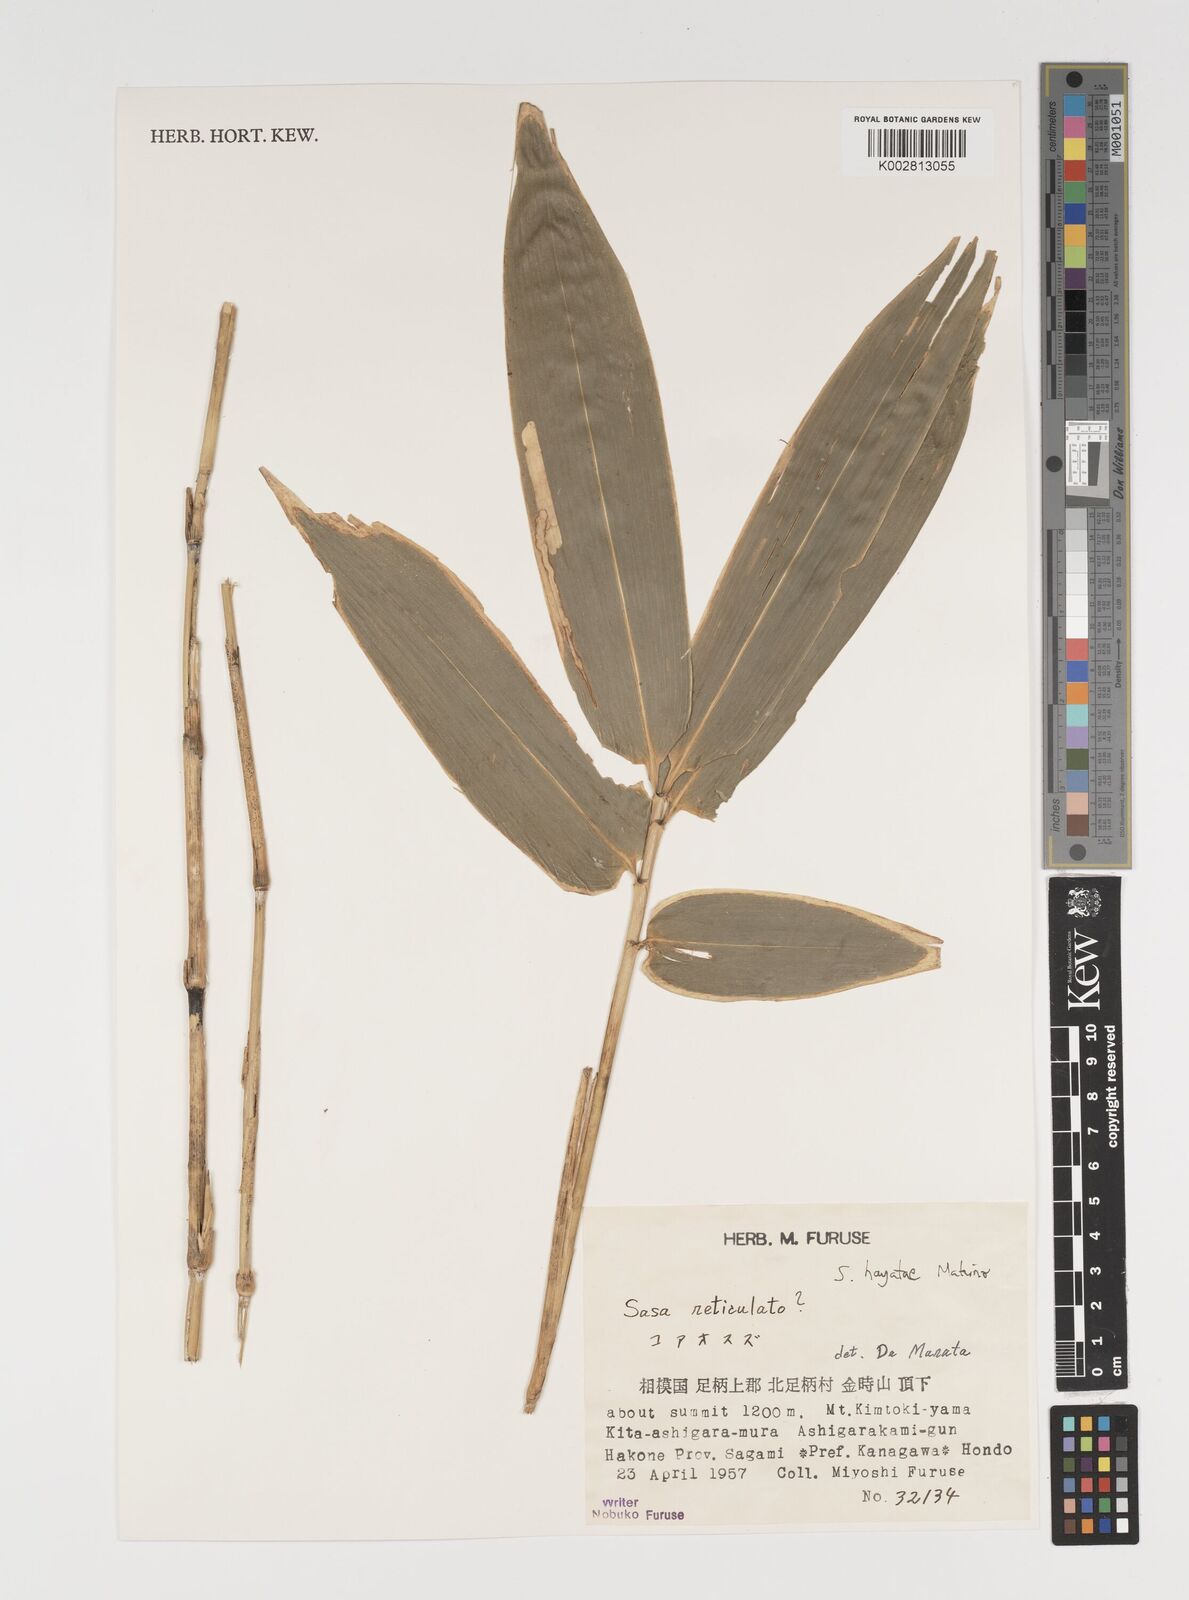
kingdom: Plantae
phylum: Tracheophyta
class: Liliopsida
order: Poales
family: Poaceae
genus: Sasa
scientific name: Sasa hayatae
